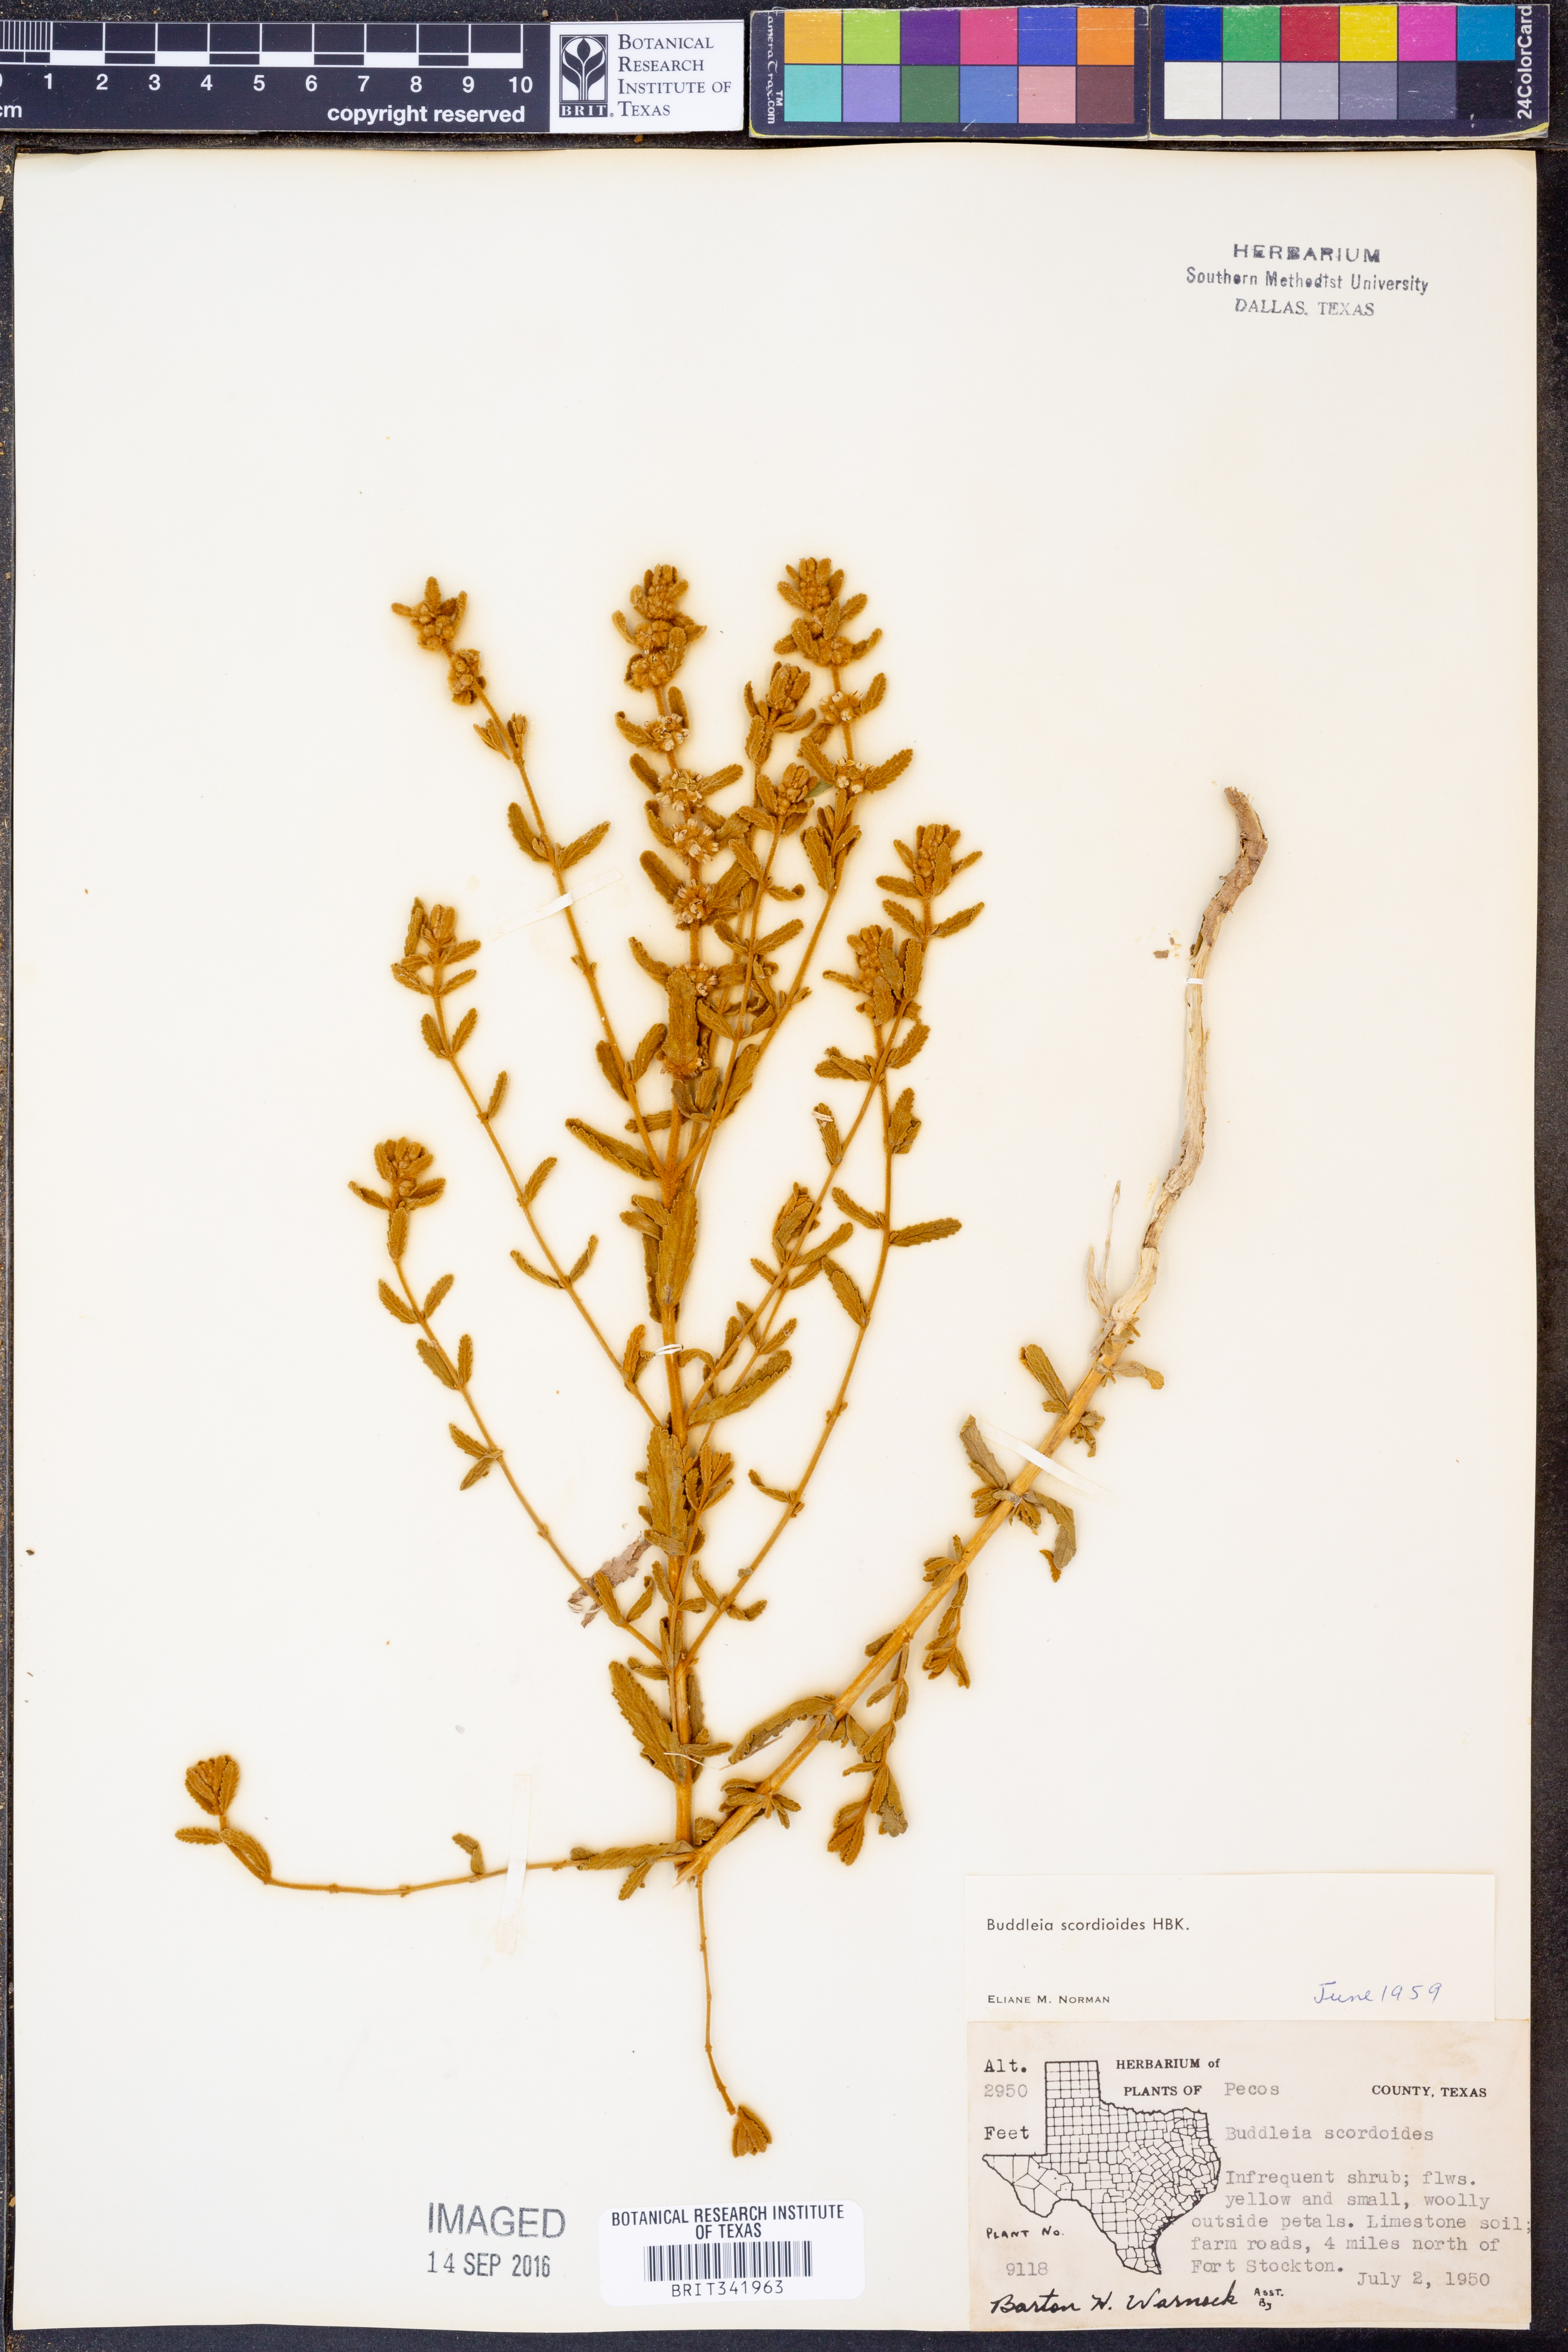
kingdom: Plantae
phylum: Tracheophyta
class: Magnoliopsida
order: Lamiales
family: Scrophulariaceae
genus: Buddleja
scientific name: Buddleja scordioides
